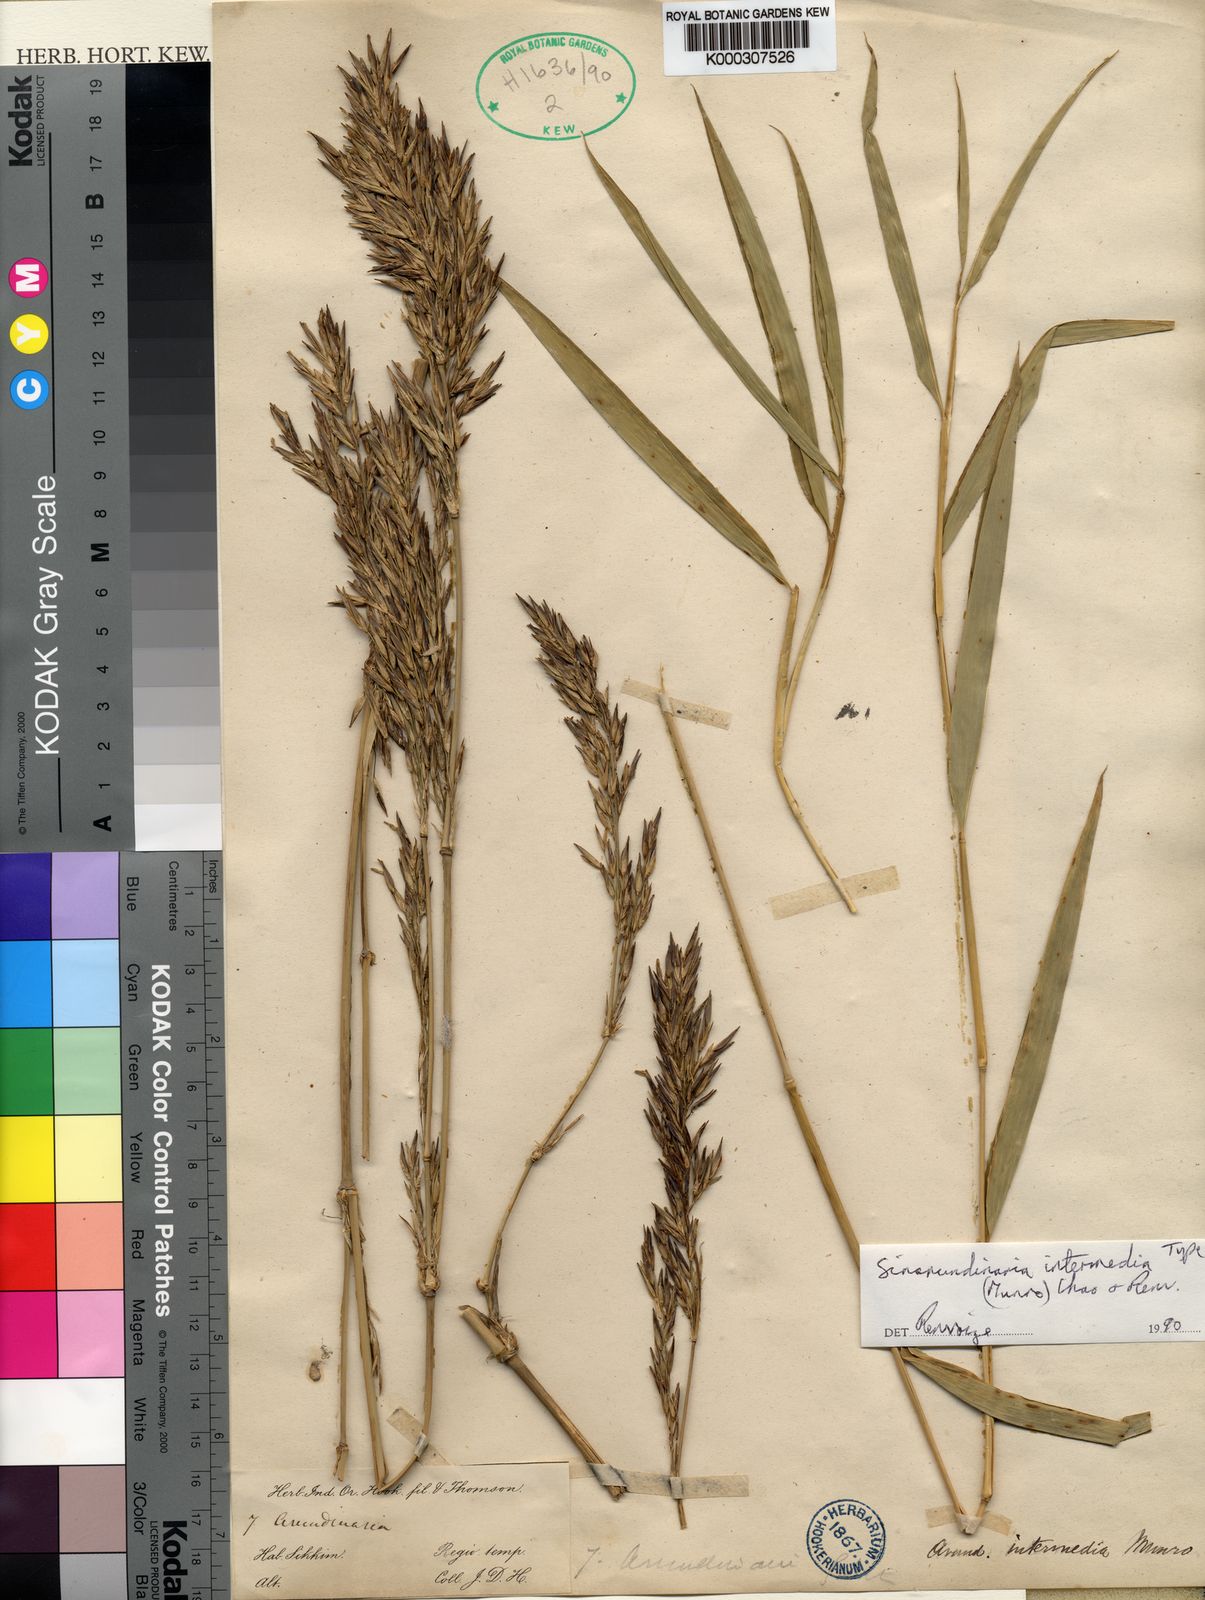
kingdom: Plantae
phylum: Tracheophyta
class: Liliopsida
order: Poales
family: Poaceae
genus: Drepanostachyum
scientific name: Drepanostachyum intermedium
